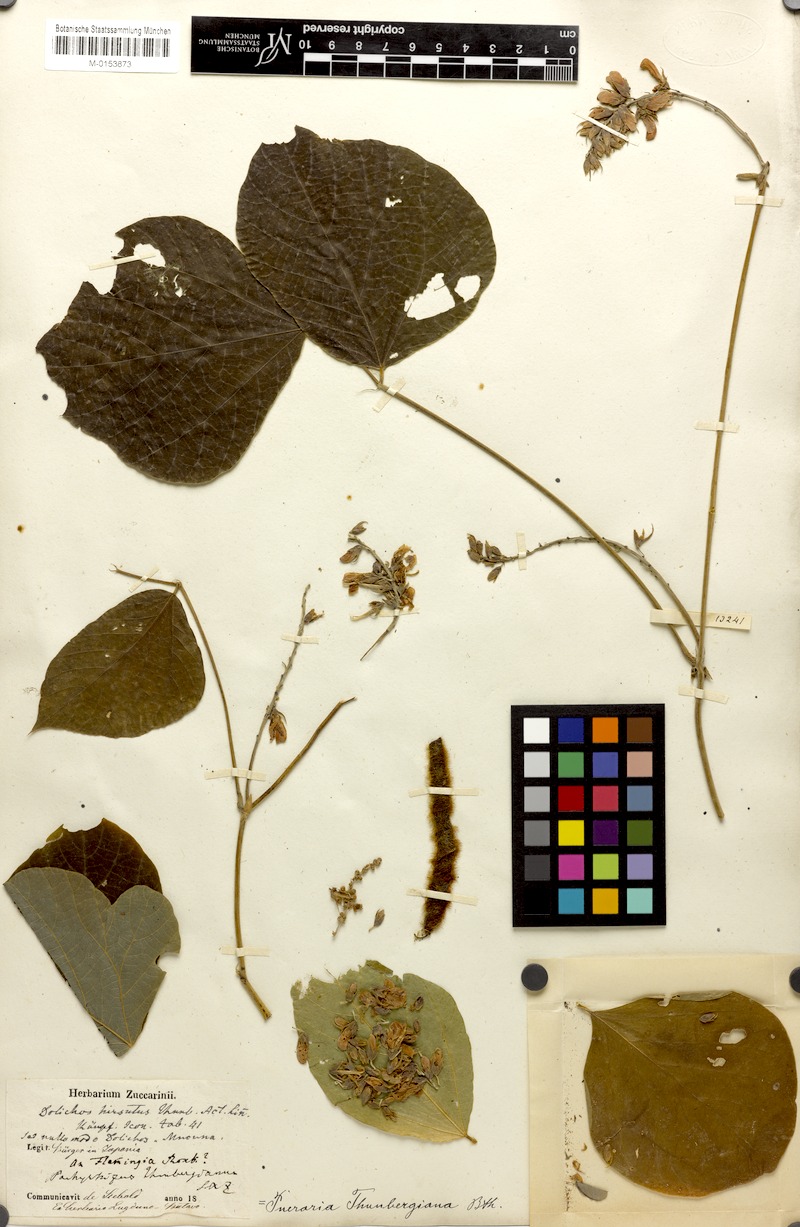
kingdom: Plantae
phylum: Tracheophyta
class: Magnoliopsida
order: Fabales
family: Fabaceae
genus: Pueraria
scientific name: Pueraria montana
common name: Kudzu
